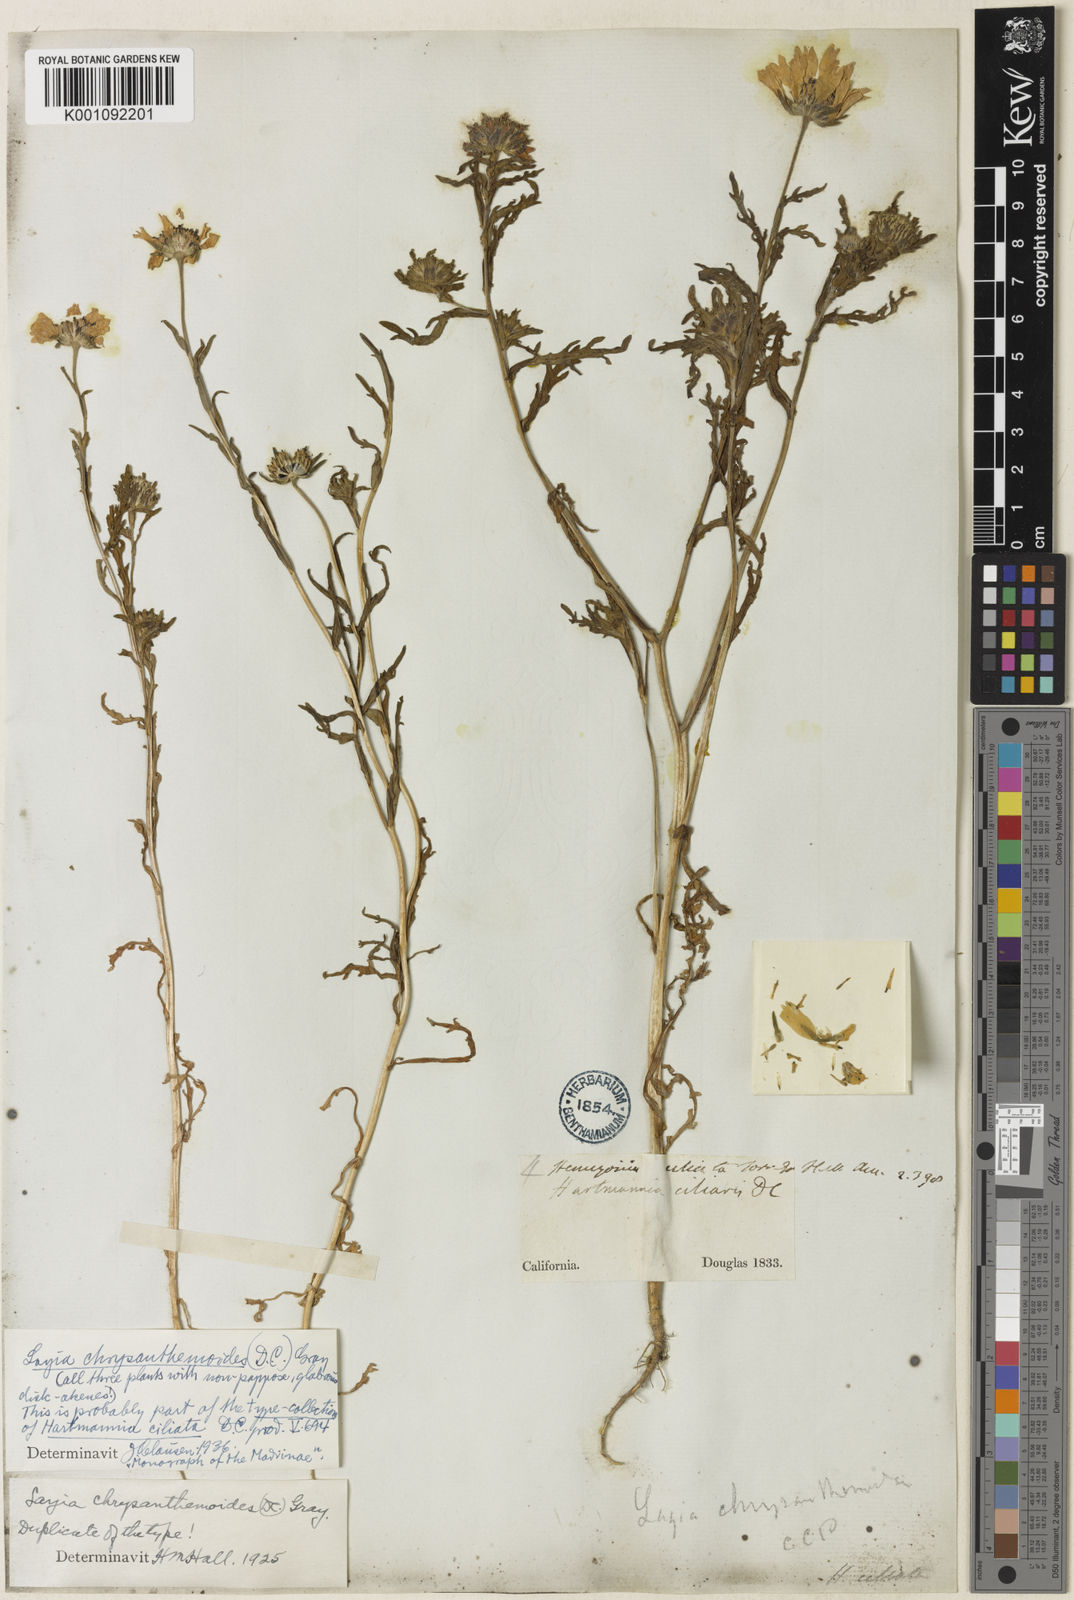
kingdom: Plantae
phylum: Tracheophyta
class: Magnoliopsida
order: Asterales
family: Asteraceae
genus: Layia
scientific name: Layia chrysanthemoides
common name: Smooth layia
